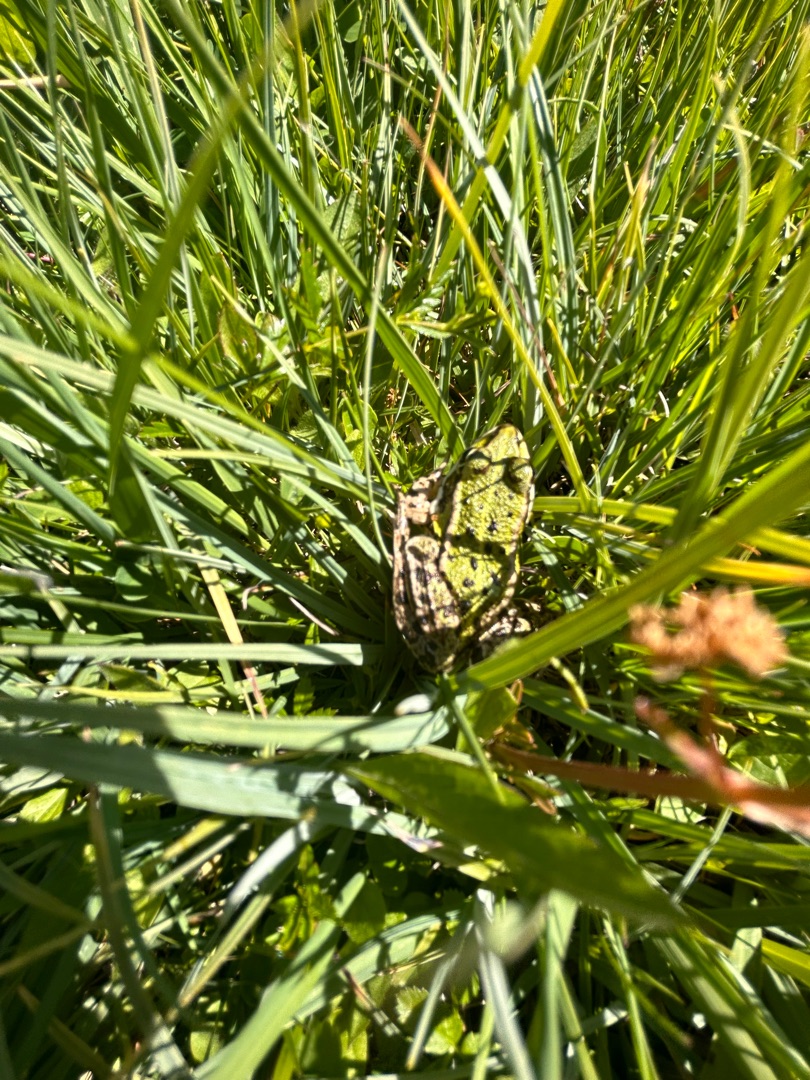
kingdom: Animalia
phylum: Chordata
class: Amphibia
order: Anura
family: Ranidae
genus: Pelophylax
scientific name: Pelophylax lessonae
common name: Grøn frø
